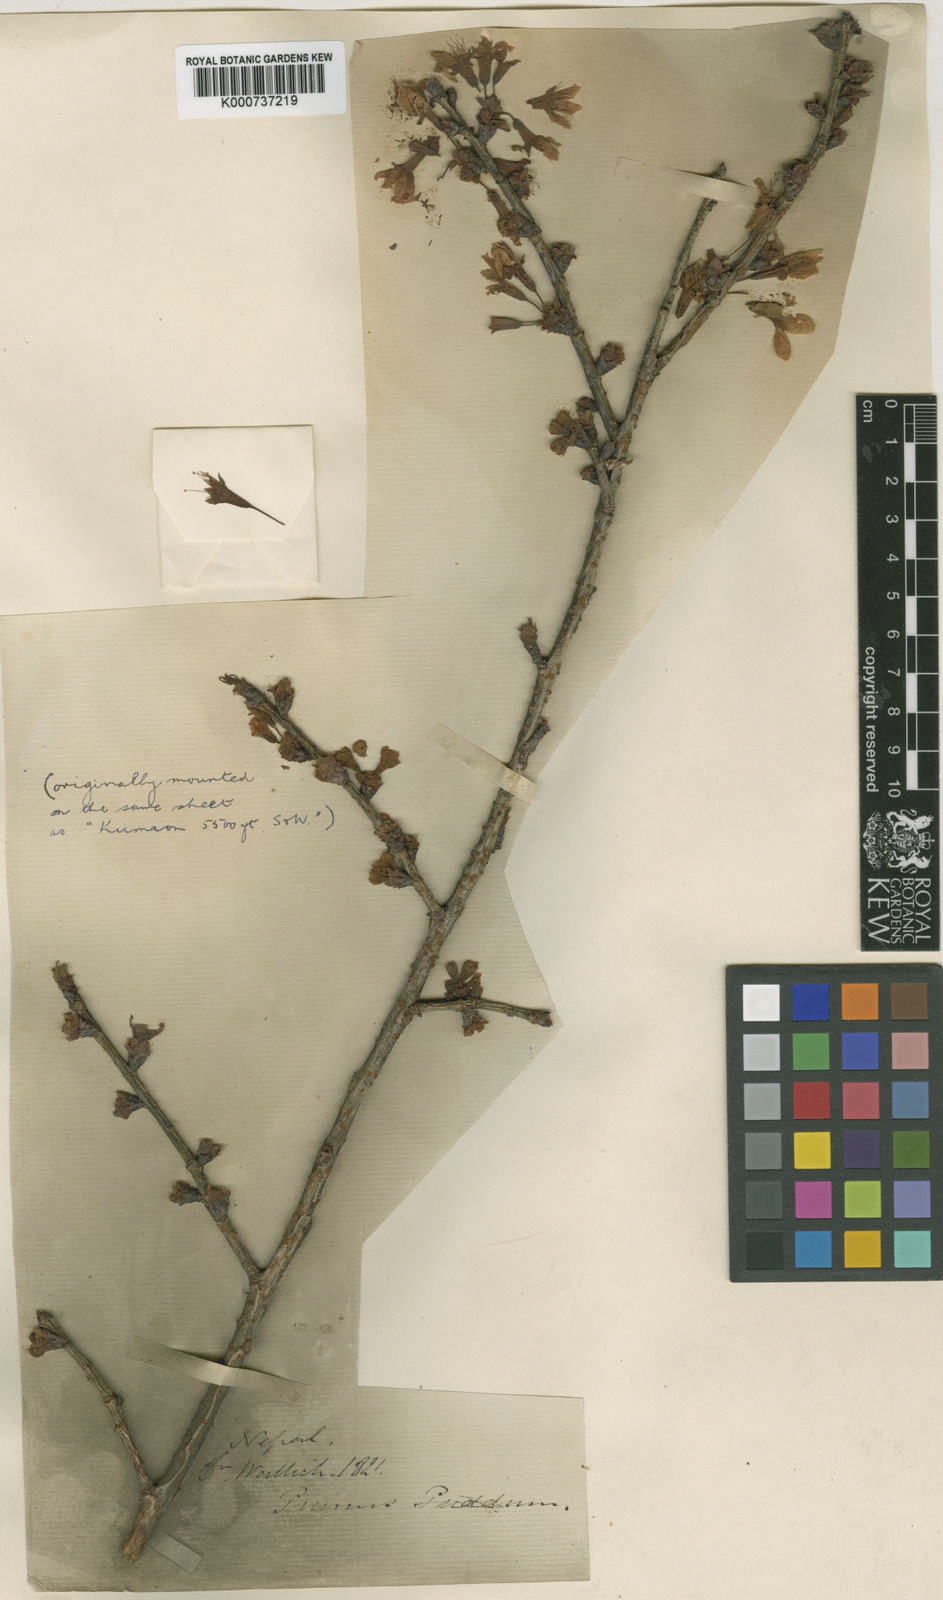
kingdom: Plantae
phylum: Tracheophyta
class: Magnoliopsida
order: Rosales
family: Rosaceae
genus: Prunus
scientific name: Prunus cerasoides
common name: Wild himalayan cherry
